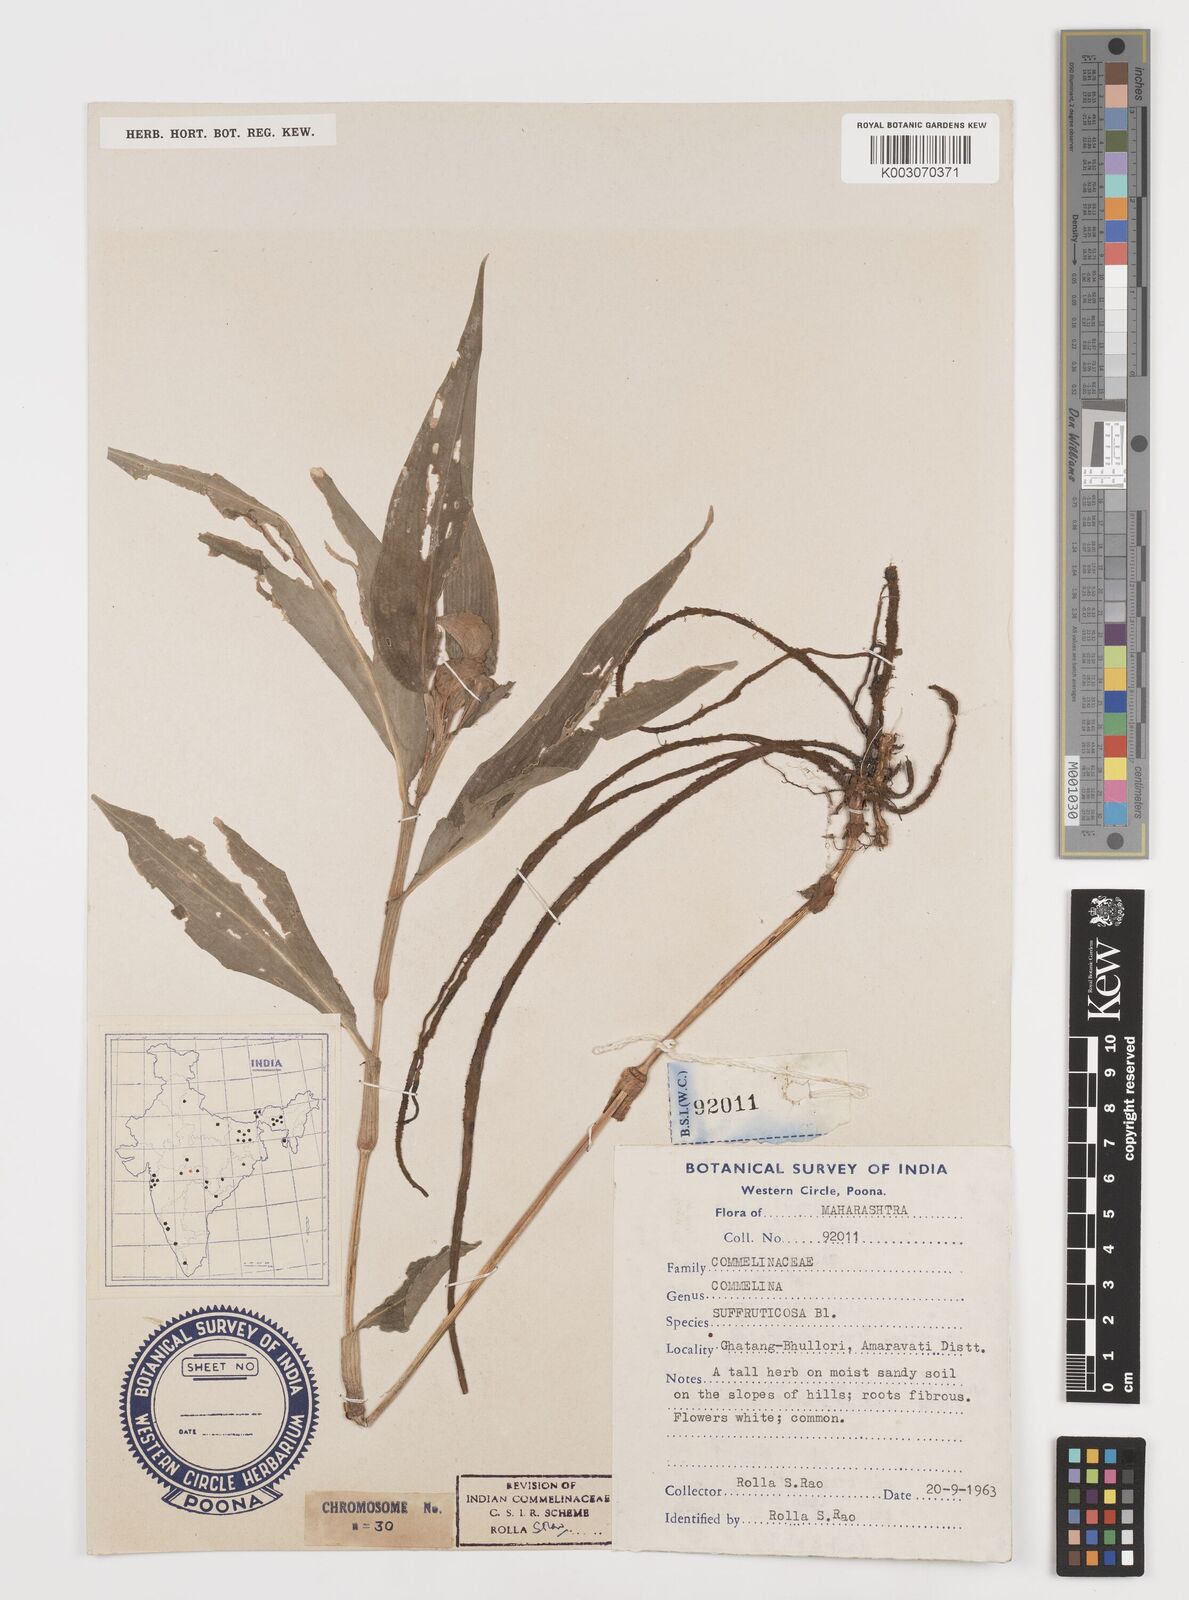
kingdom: Plantae
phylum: Tracheophyta
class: Liliopsida
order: Commelinales
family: Commelinaceae
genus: Commelina
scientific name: Commelina suffruticosa
